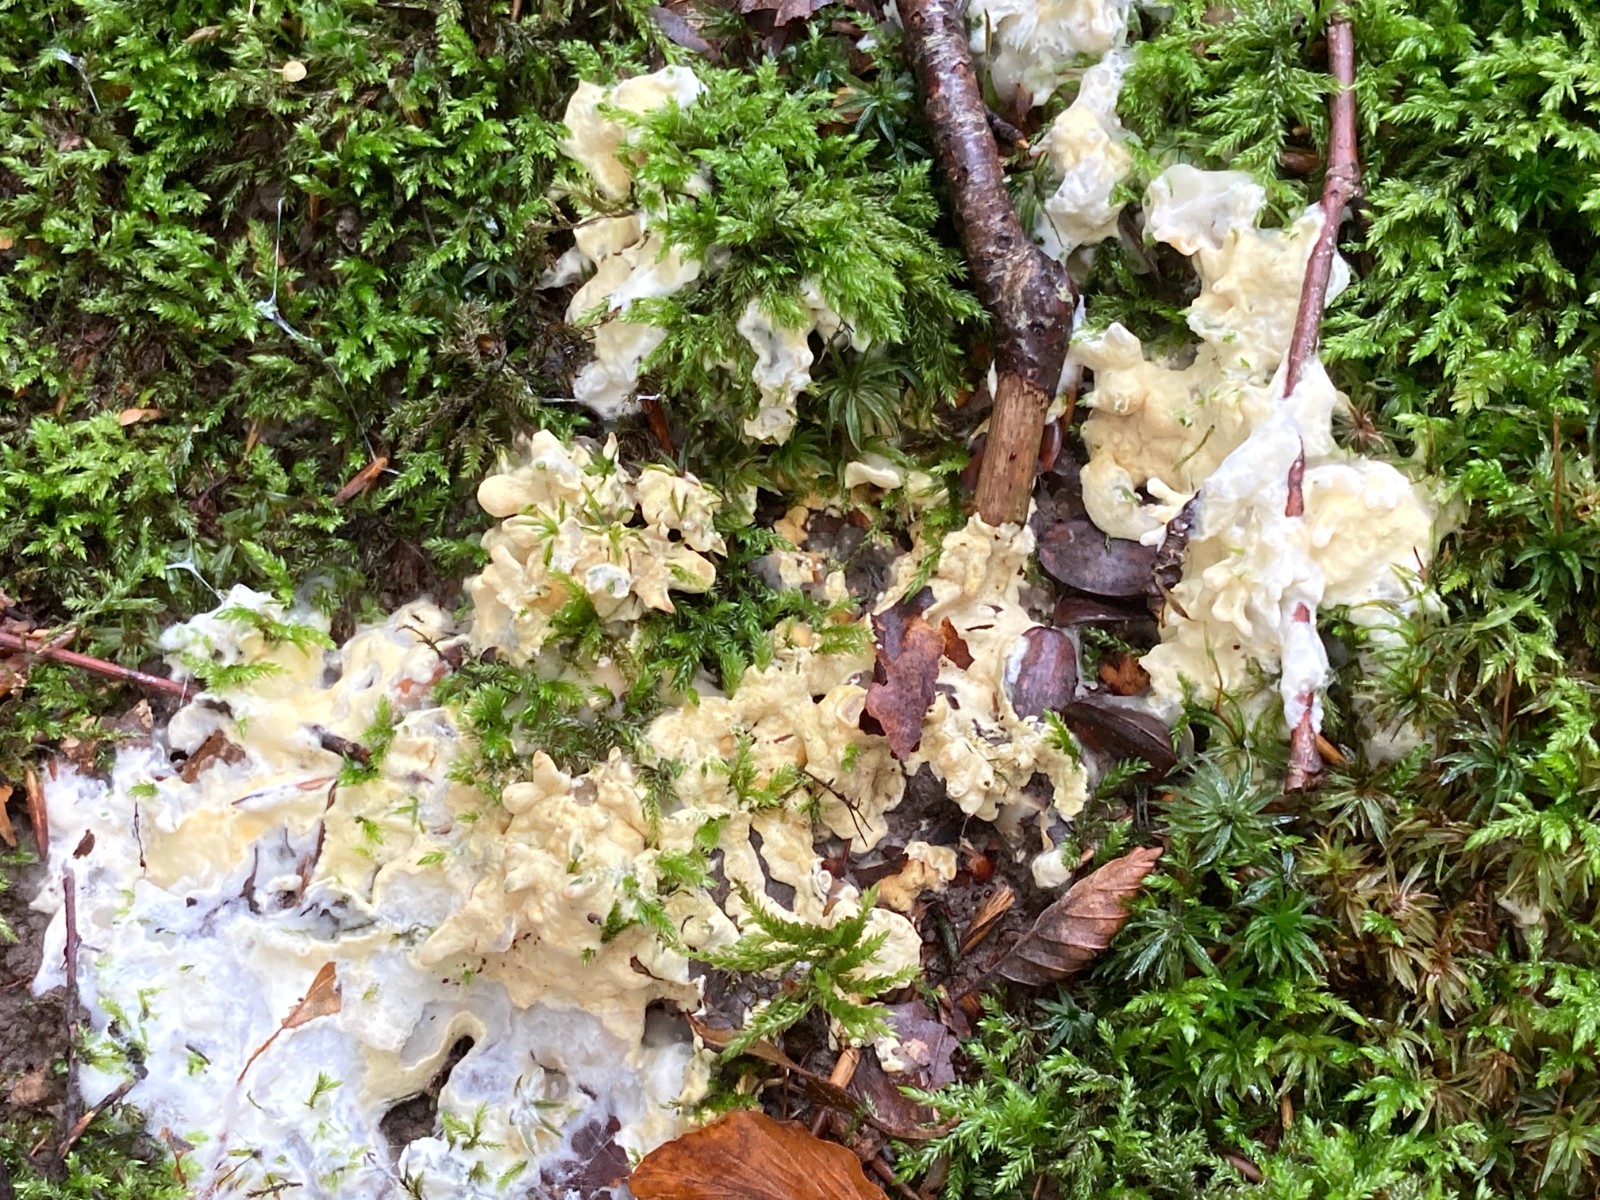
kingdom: Fungi
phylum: Ascomycota
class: Sordariomycetes
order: Hypocreales
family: Hypocreaceae
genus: Trichoderma
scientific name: Trichoderma citrinum
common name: udbredt kødkerne
